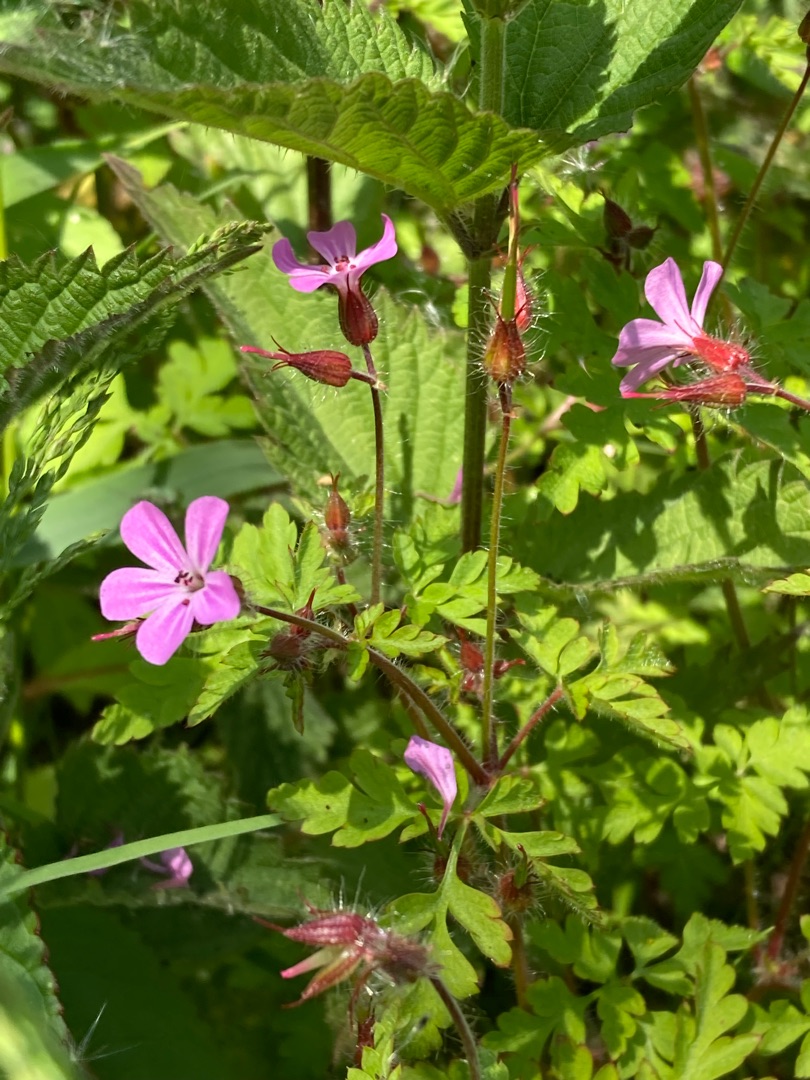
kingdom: Plantae
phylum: Tracheophyta
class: Magnoliopsida
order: Geraniales
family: Geraniaceae
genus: Geranium
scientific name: Geranium robertianum
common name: Stinkende storkenæb
